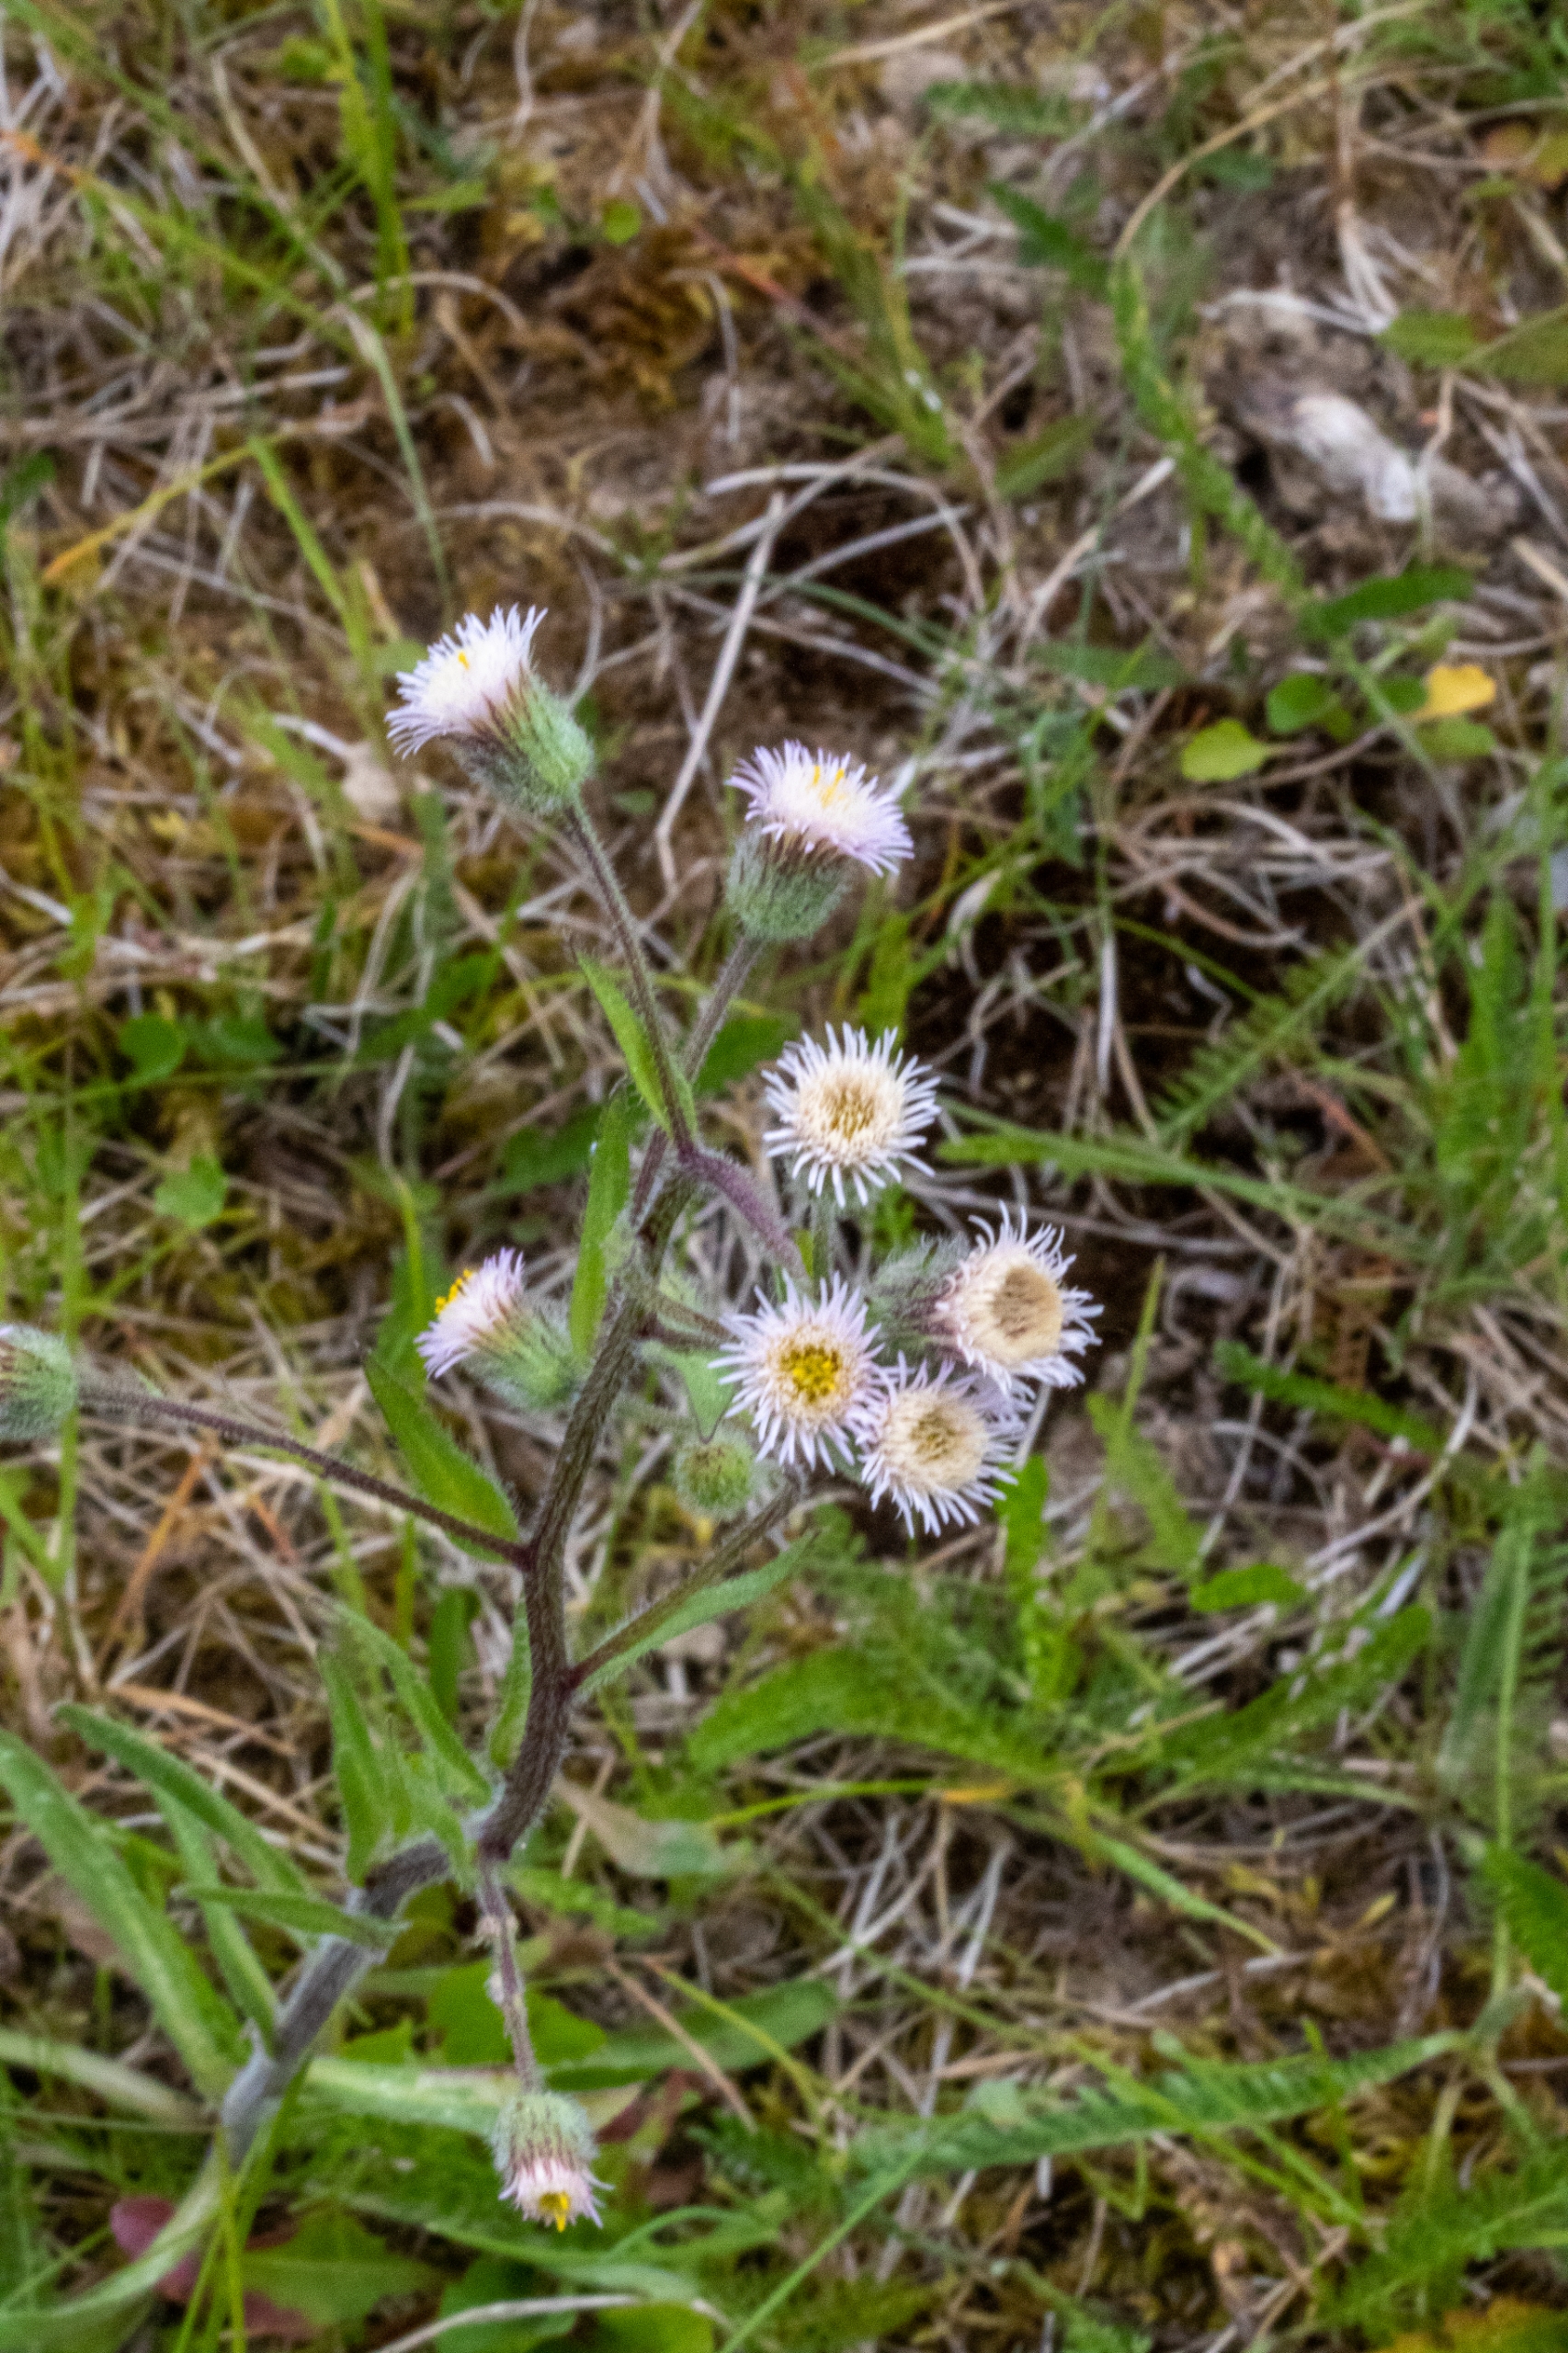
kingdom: Plantae
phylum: Tracheophyta
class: Magnoliopsida
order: Asterales
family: Asteraceae
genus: Erigeron
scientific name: Erigeron acris
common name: Bitter bakkestjerne
